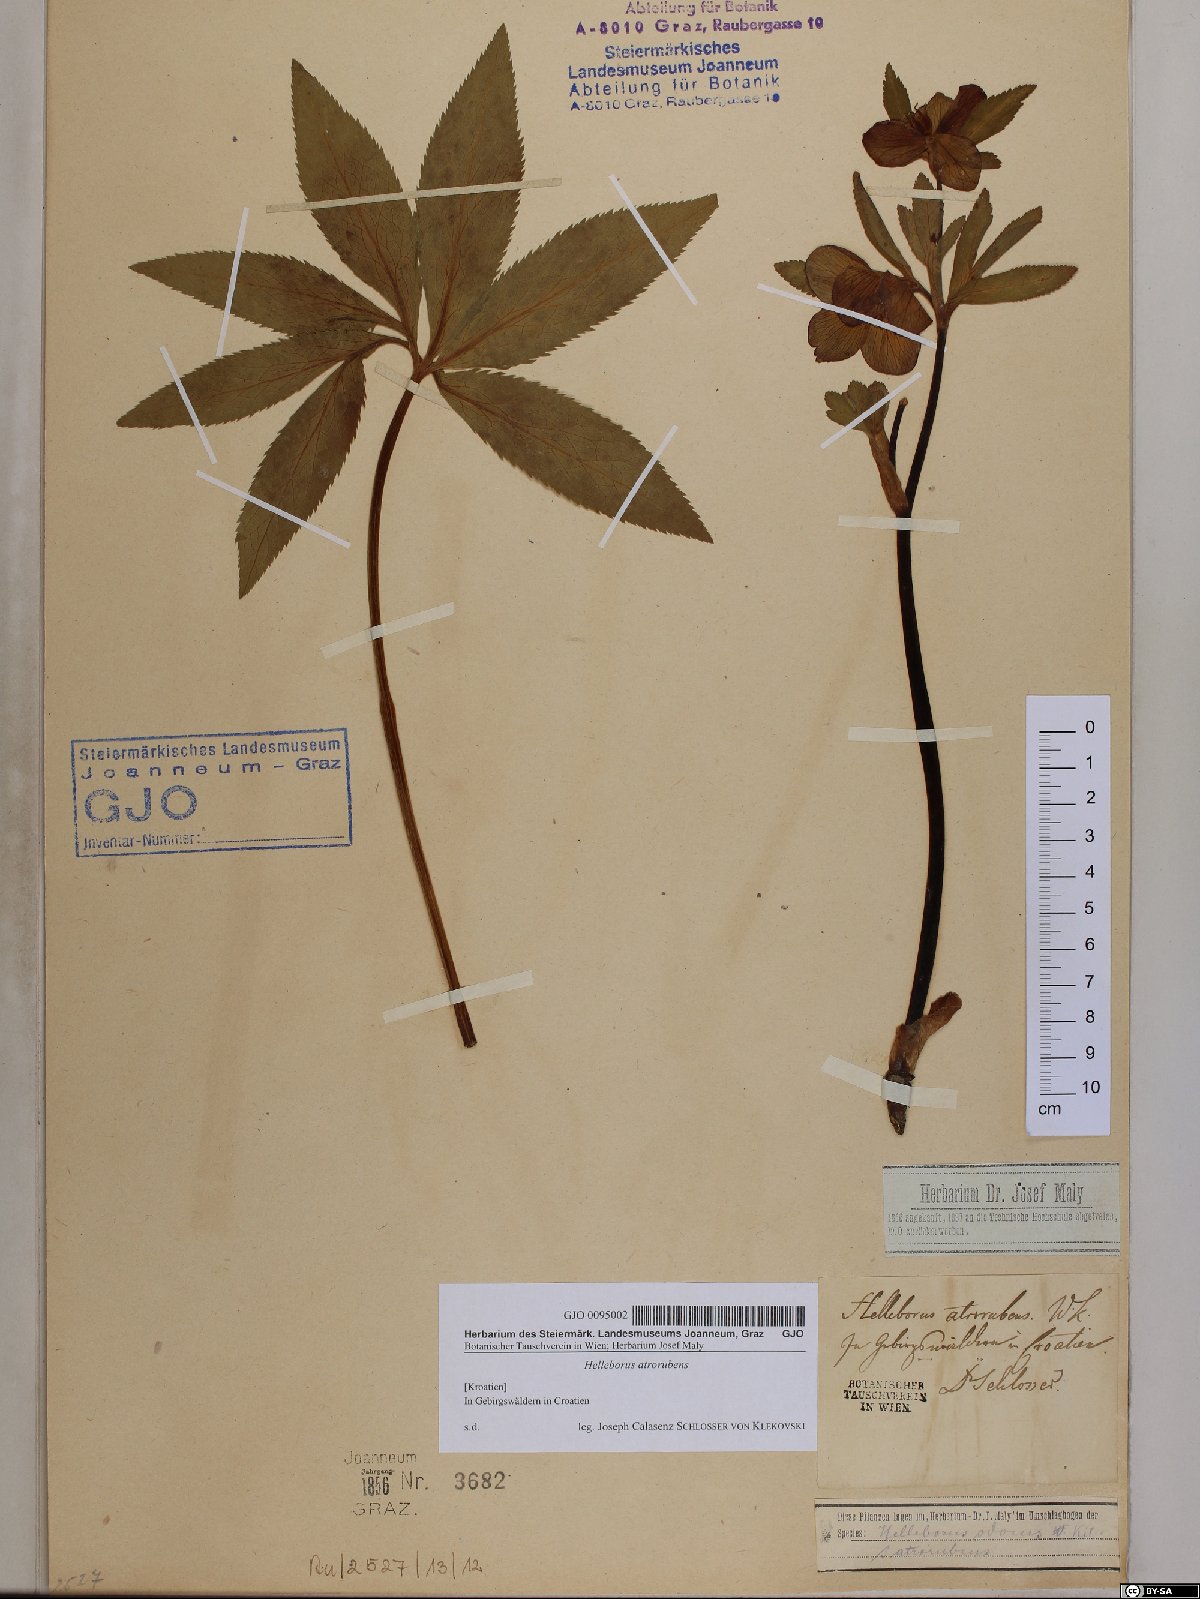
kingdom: Plantae
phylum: Tracheophyta
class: Magnoliopsida
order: Ranunculales
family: Ranunculaceae
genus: Helleborus
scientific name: Helleborus dumetorum
